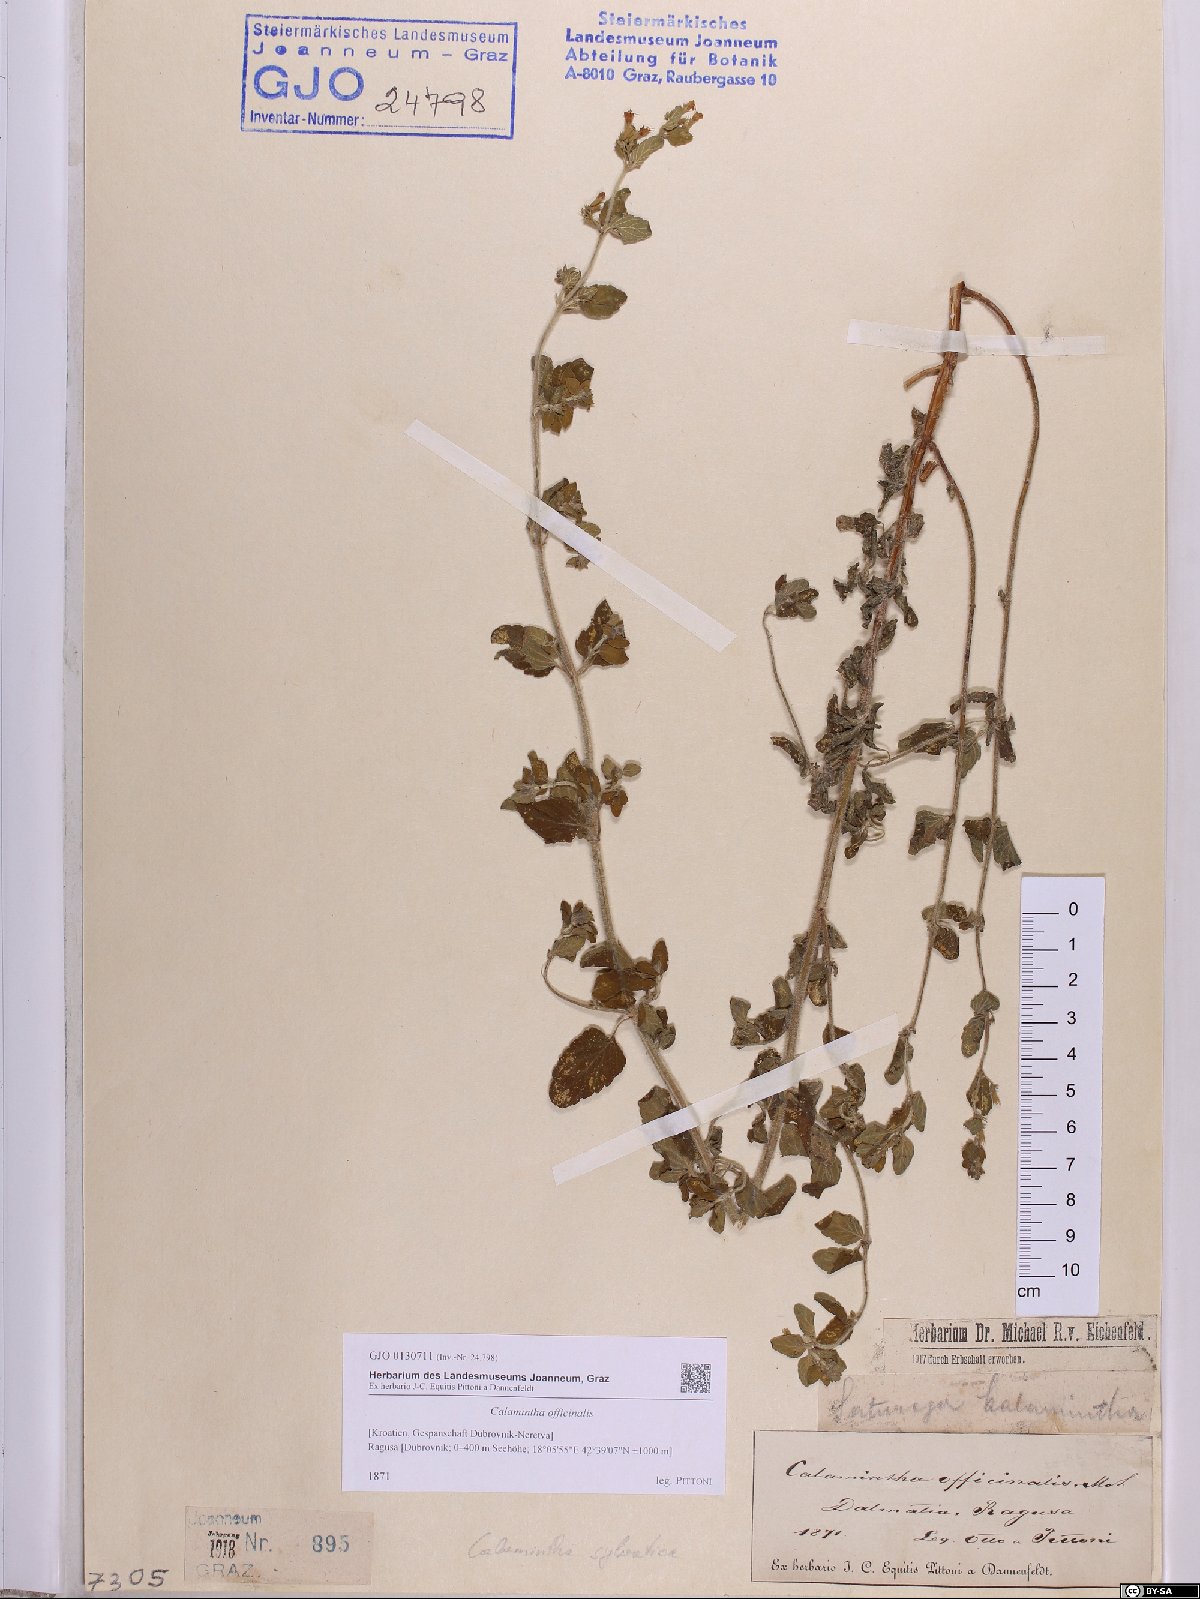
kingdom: Plantae
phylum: Tracheophyta
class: Magnoliopsida
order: Lamiales
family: Lamiaceae
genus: Clinopodium
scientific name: Clinopodium nepeta
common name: Lesser calamint
